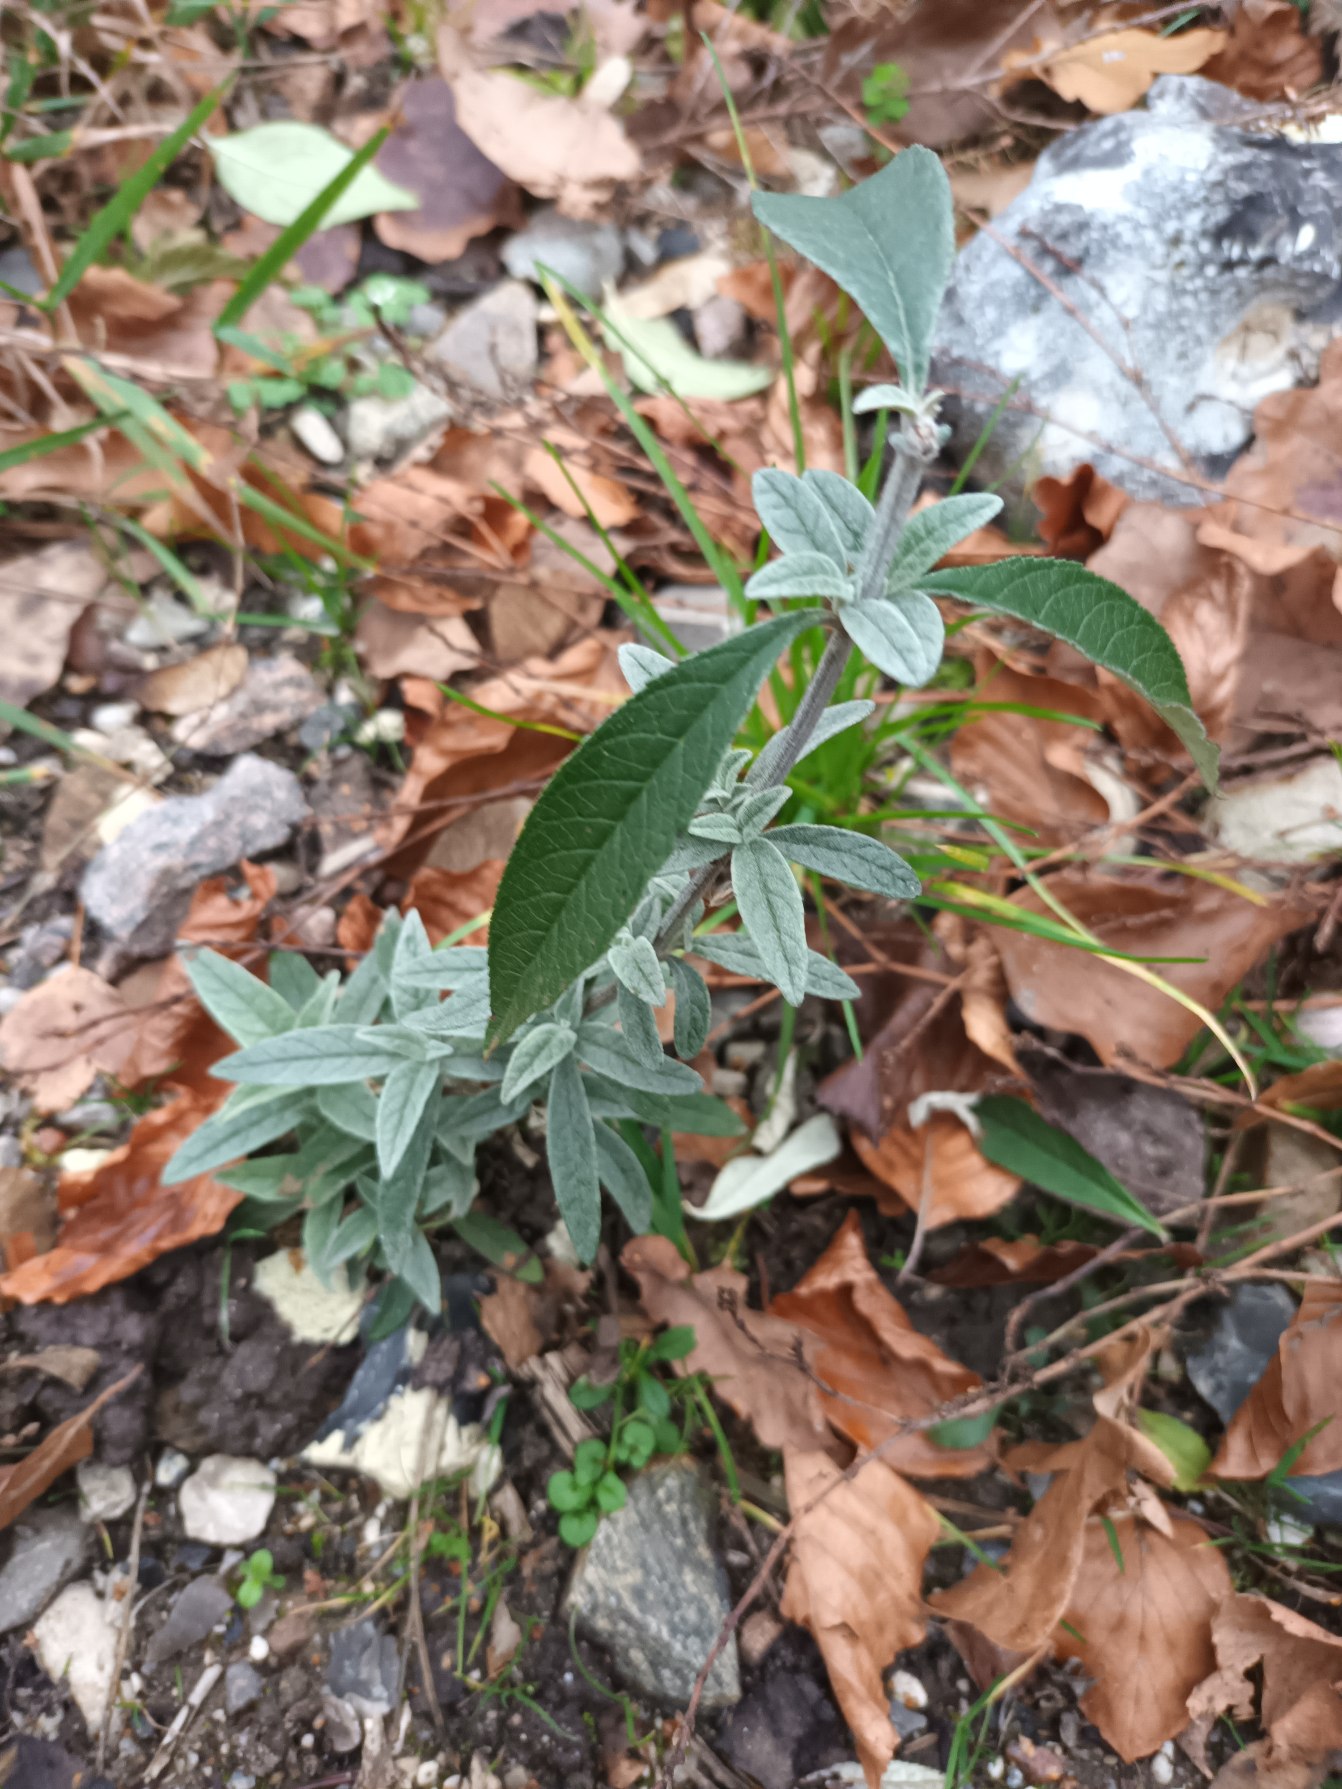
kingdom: Plantae
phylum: Tracheophyta
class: Magnoliopsida
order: Lamiales
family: Scrophulariaceae
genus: Buddleja
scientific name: Buddleja davidii
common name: Sommerfuglebusk
